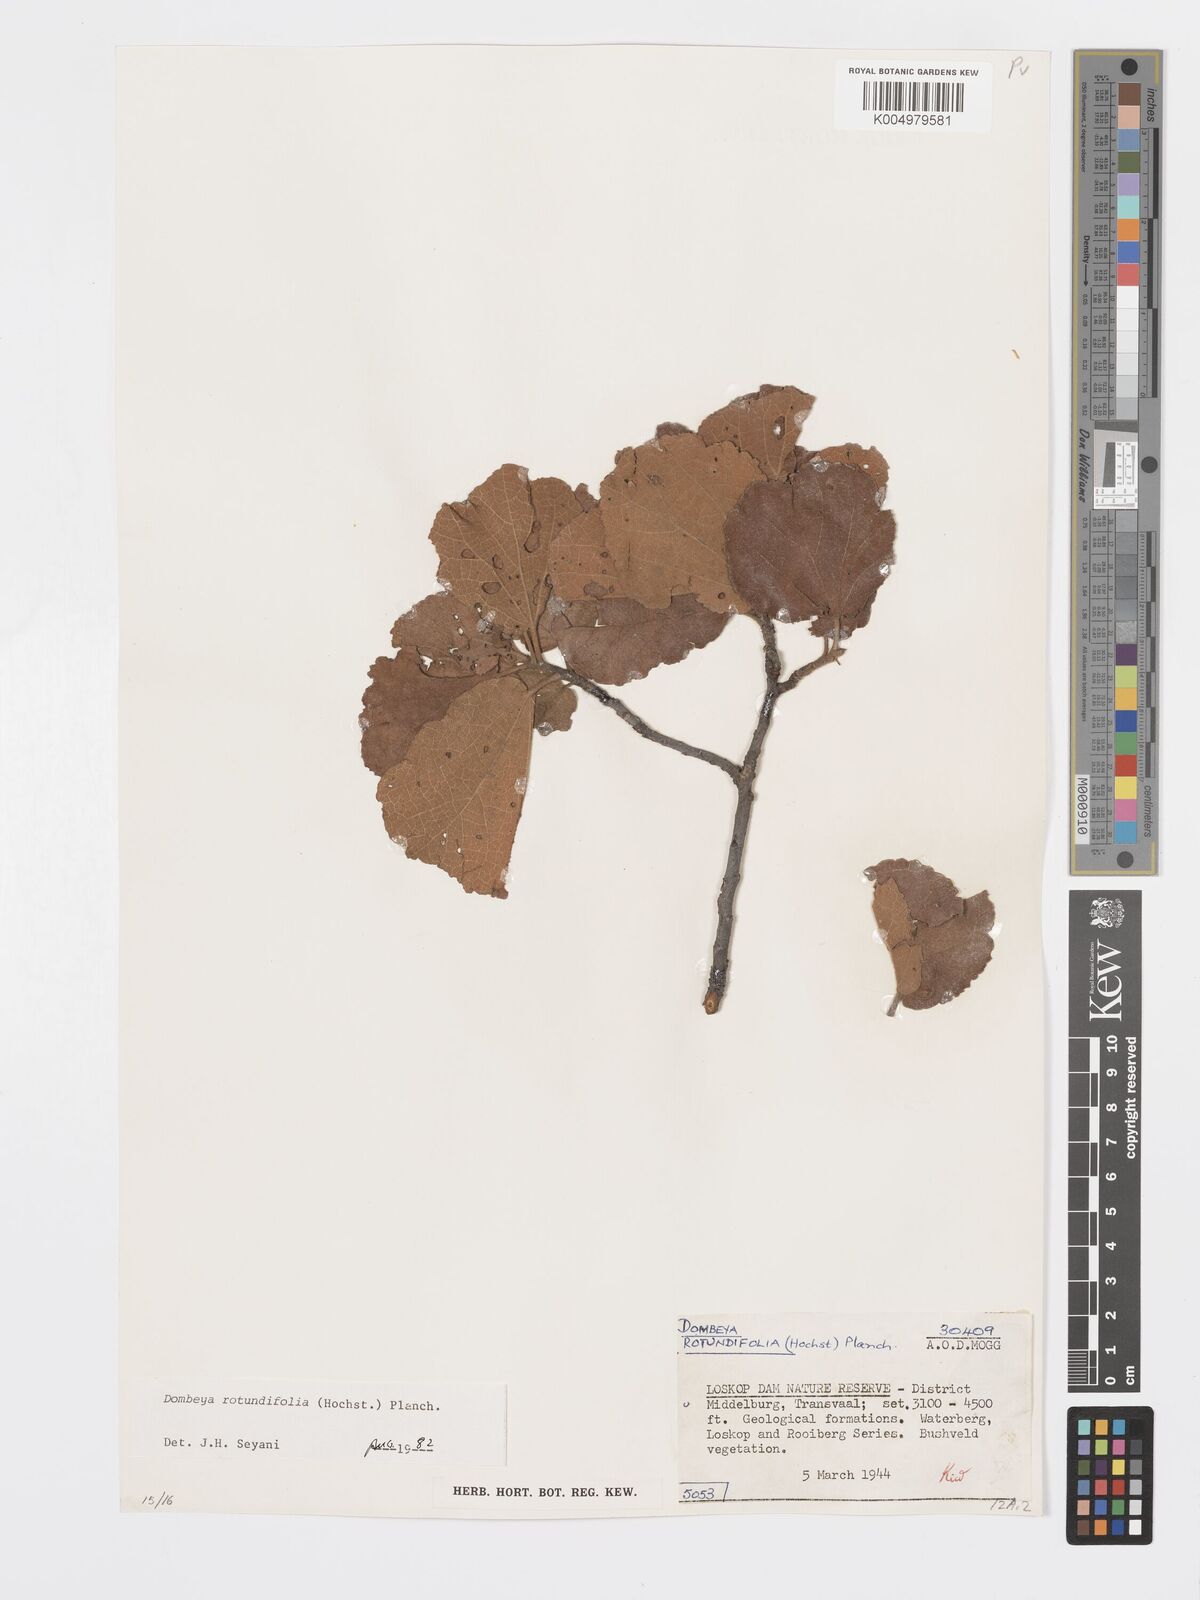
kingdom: Plantae
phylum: Tracheophyta
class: Magnoliopsida
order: Malvales
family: Malvaceae
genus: Dombeya
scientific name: Dombeya rotundifolia
